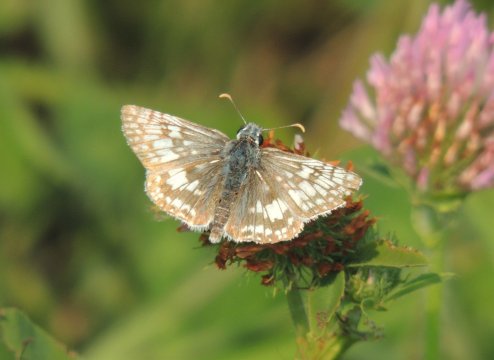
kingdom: Animalia
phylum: Arthropoda
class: Insecta
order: Lepidoptera
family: Hesperiidae
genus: Pyrgus
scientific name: Pyrgus communis
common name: Common Checkered-Skipper
